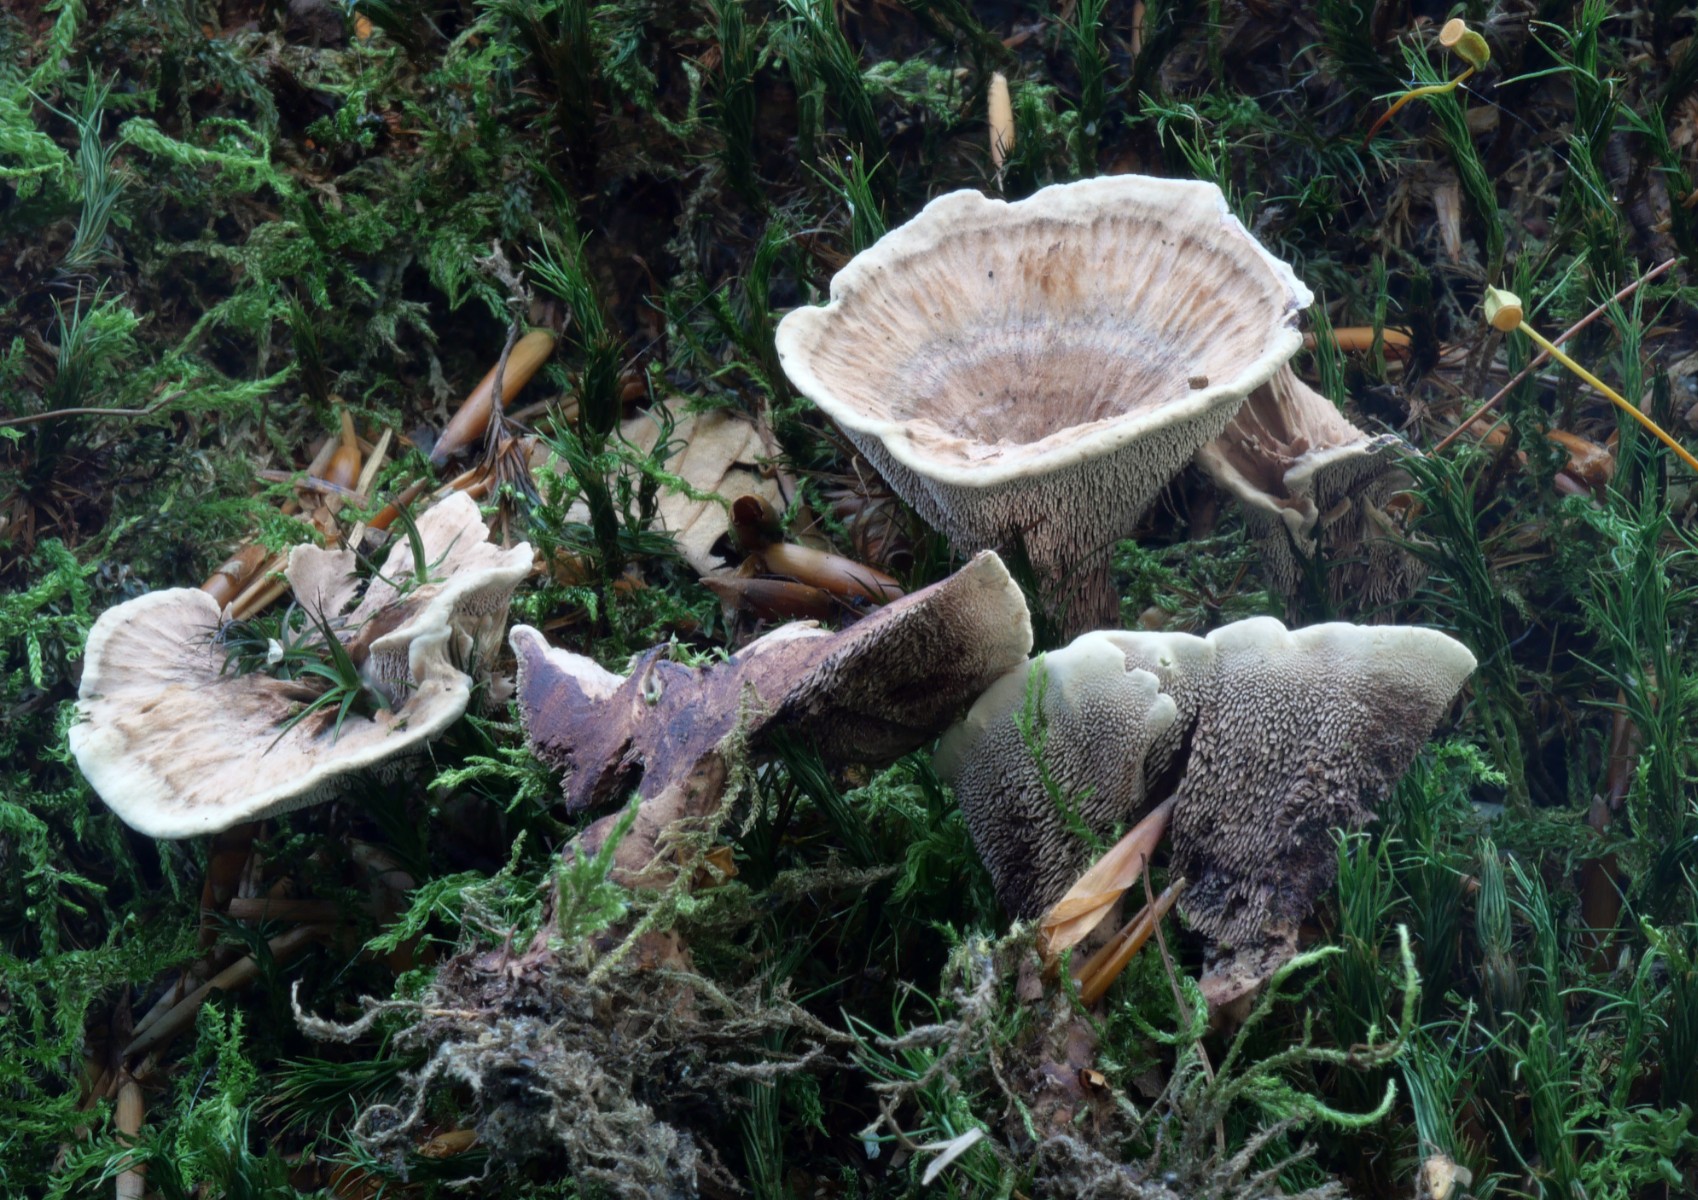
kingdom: Fungi
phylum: Basidiomycota
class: Agaricomycetes
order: Thelephorales
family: Bankeraceae
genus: Hydnellum
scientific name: Hydnellum concrescens
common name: bæltet korkpigsvamp
